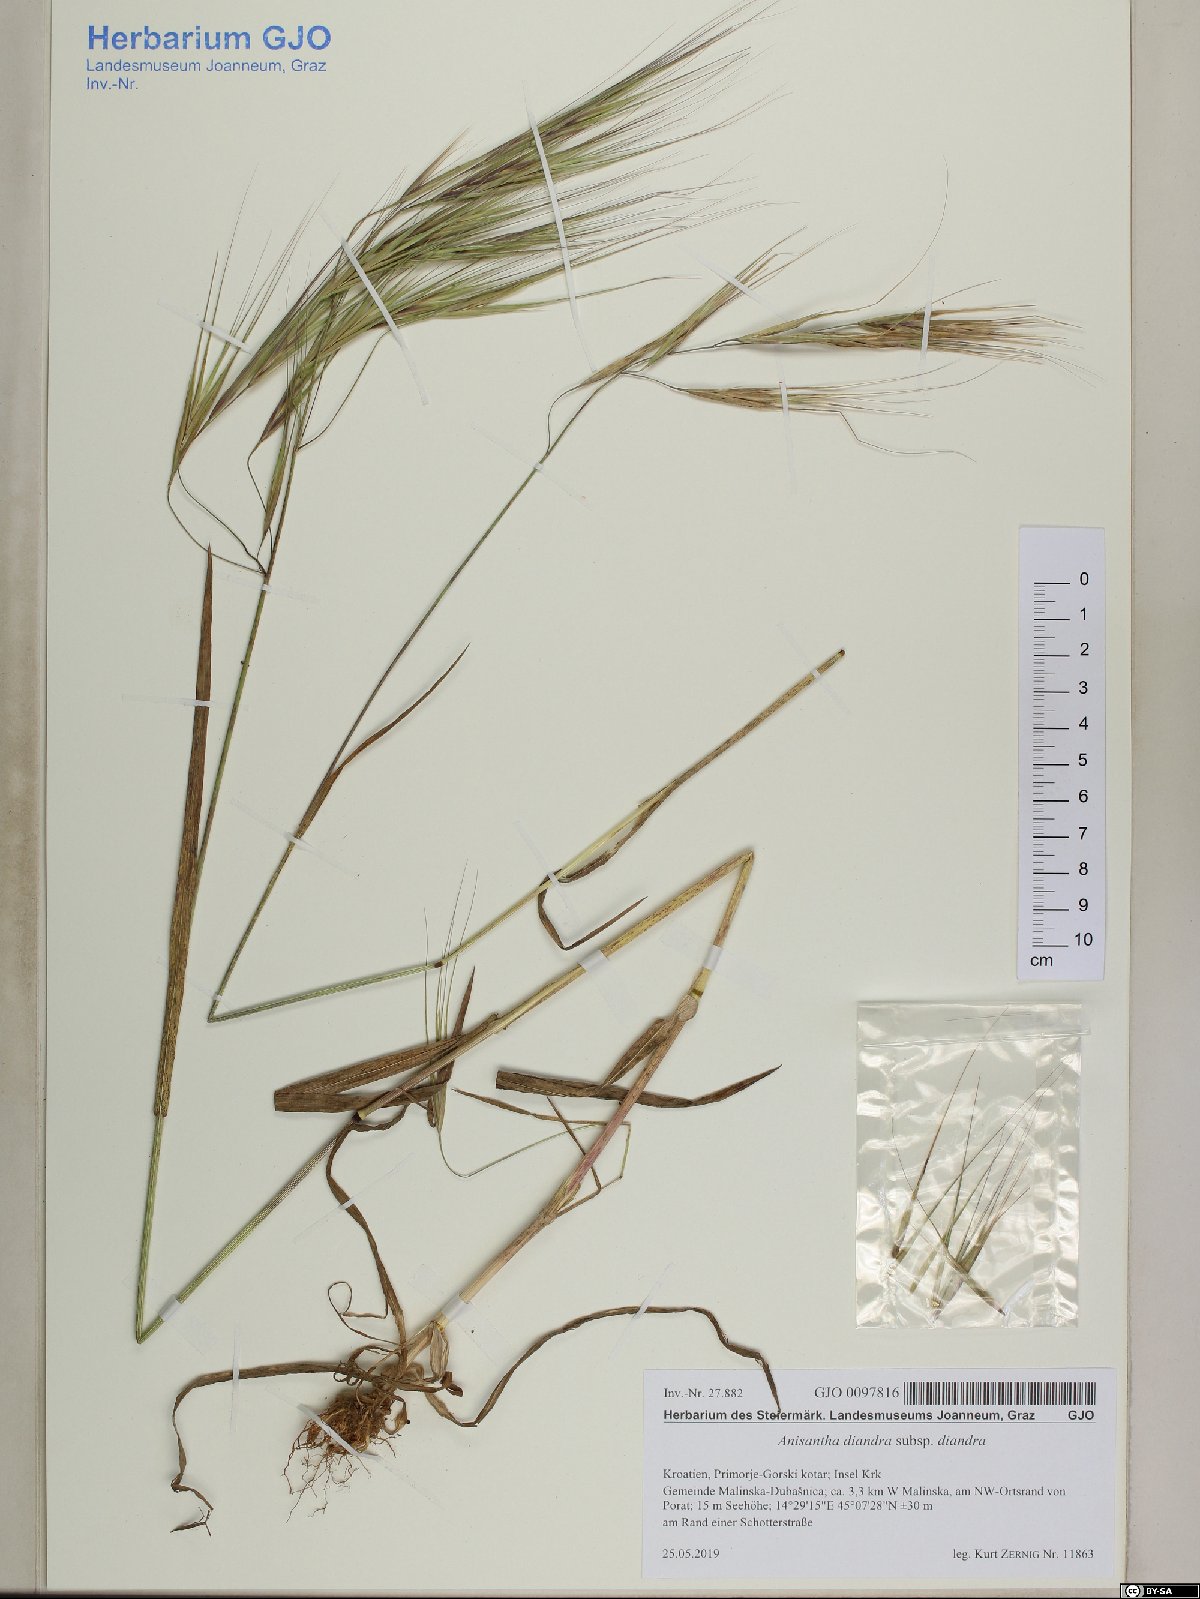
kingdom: Plantae
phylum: Tracheophyta
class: Liliopsida
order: Poales
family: Poaceae
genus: Bromus
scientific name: Bromus diandrus
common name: Ripgut brome
